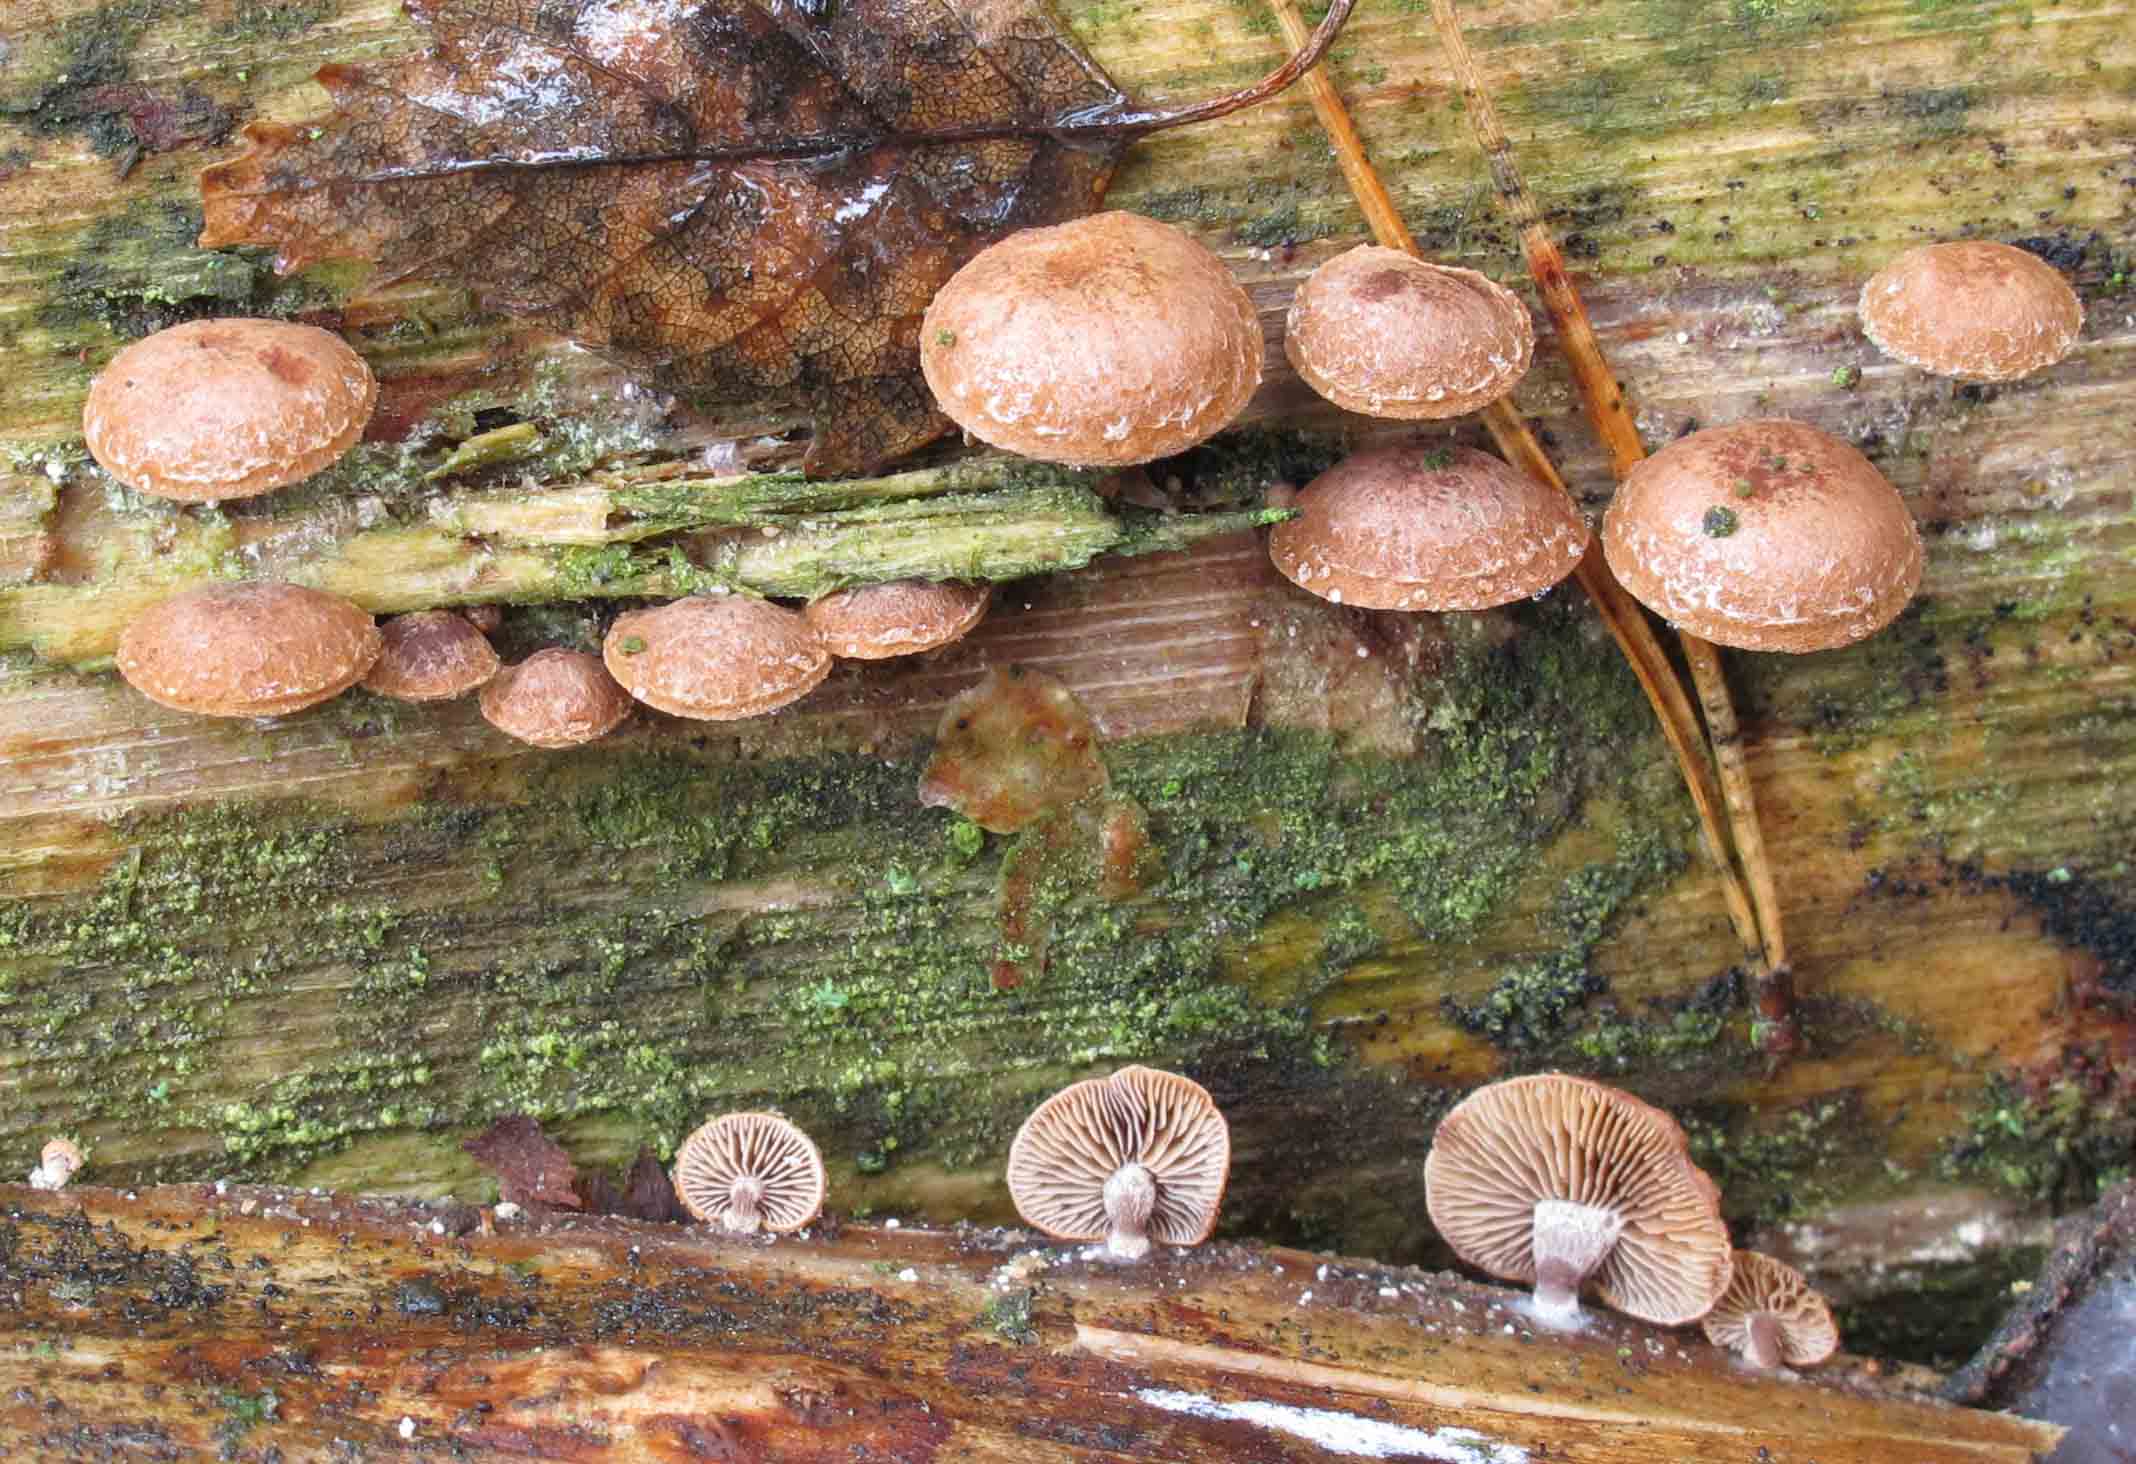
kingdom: Fungi
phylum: Basidiomycota
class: Agaricomycetes
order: Agaricales
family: Strophariaceae
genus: Deconica
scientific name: Deconica horizontalis
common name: ved-stråhat
